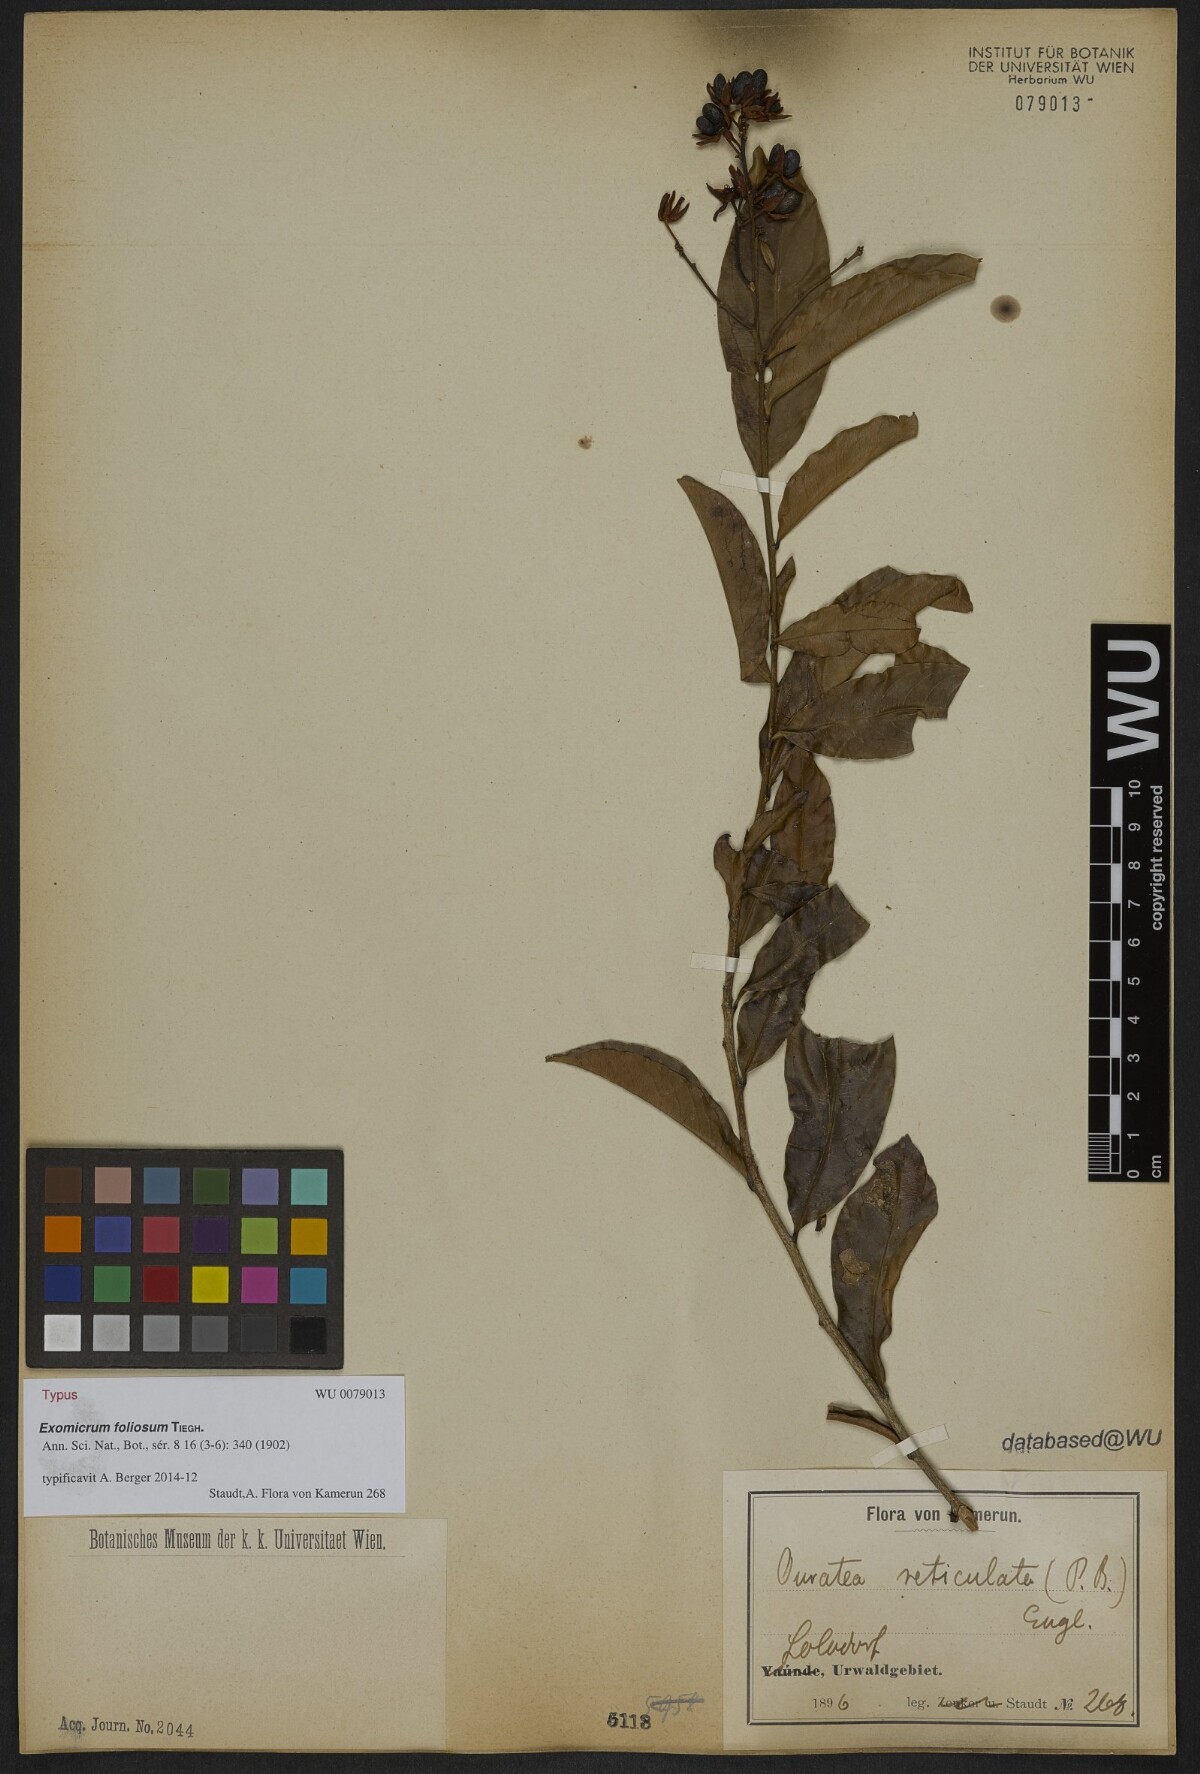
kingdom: Plantae
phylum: Tracheophyta
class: Magnoliopsida
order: Malpighiales
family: Ochnaceae
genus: Campylospermum
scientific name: Campylospermum vogelii
